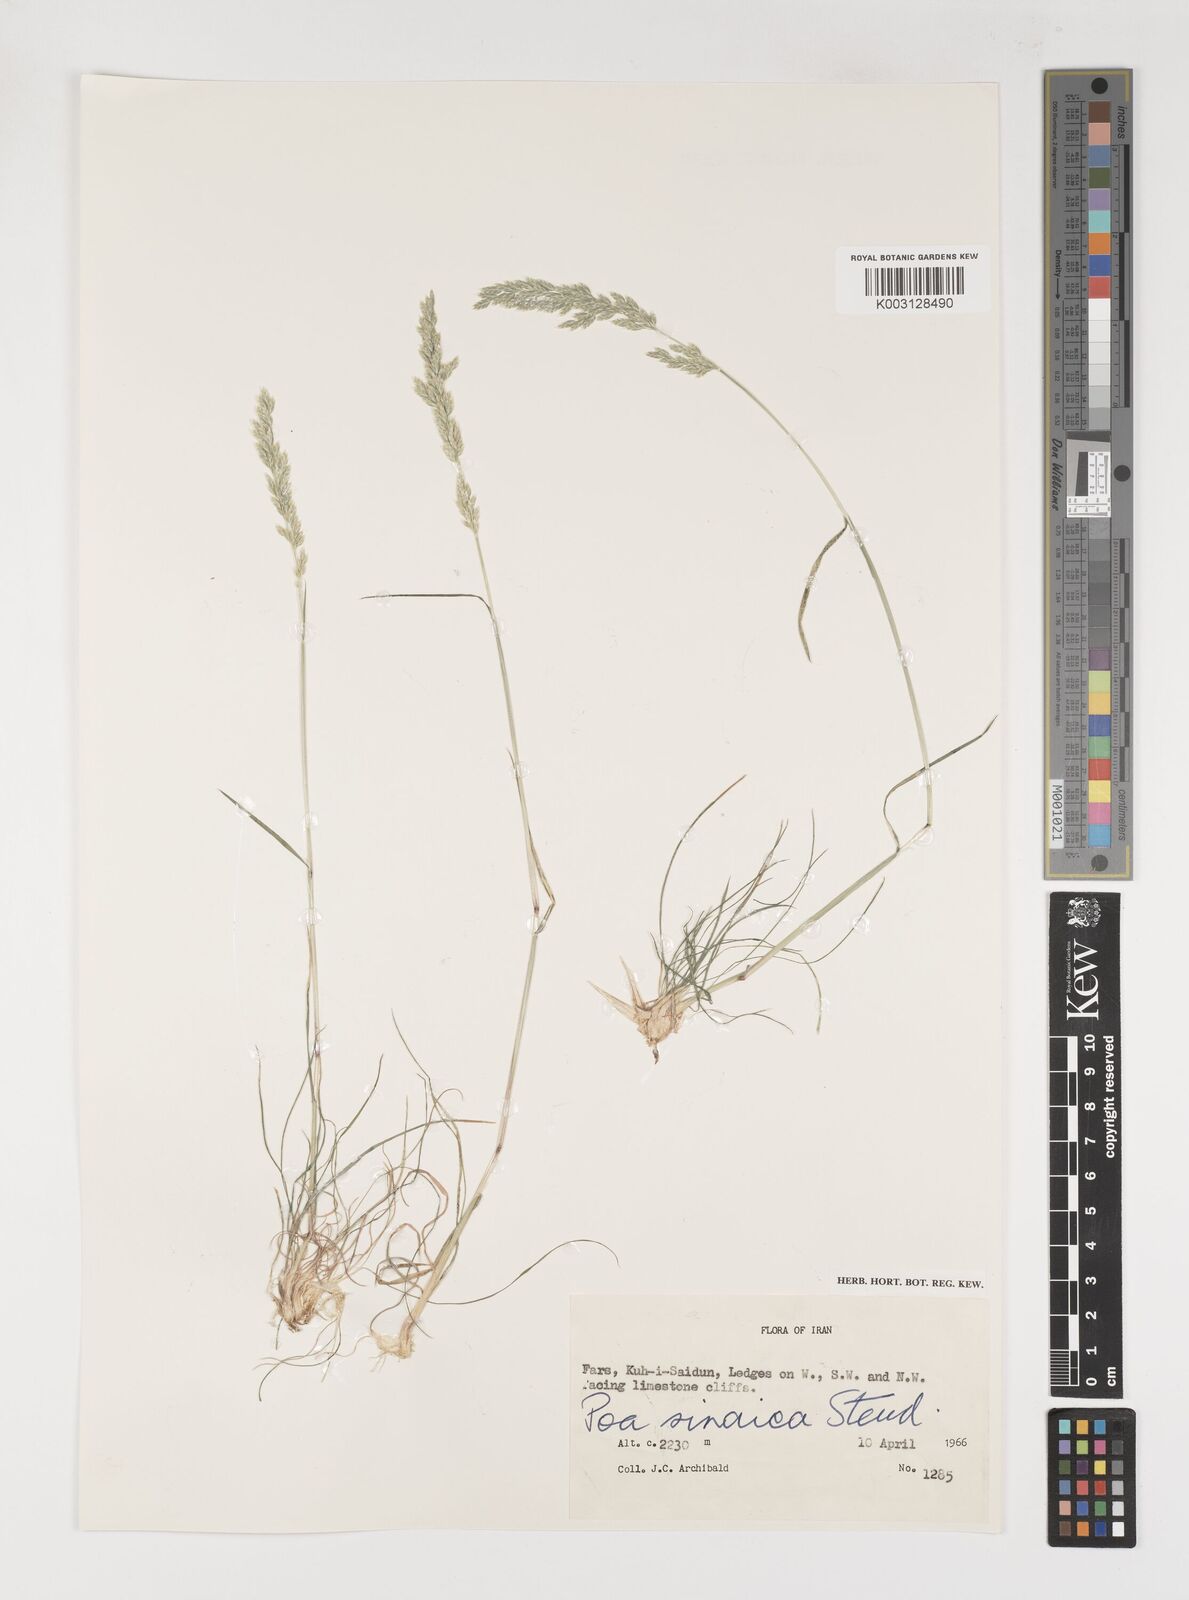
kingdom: Plantae
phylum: Tracheophyta
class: Liliopsida
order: Poales
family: Poaceae
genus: Poa
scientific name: Poa sinaica
